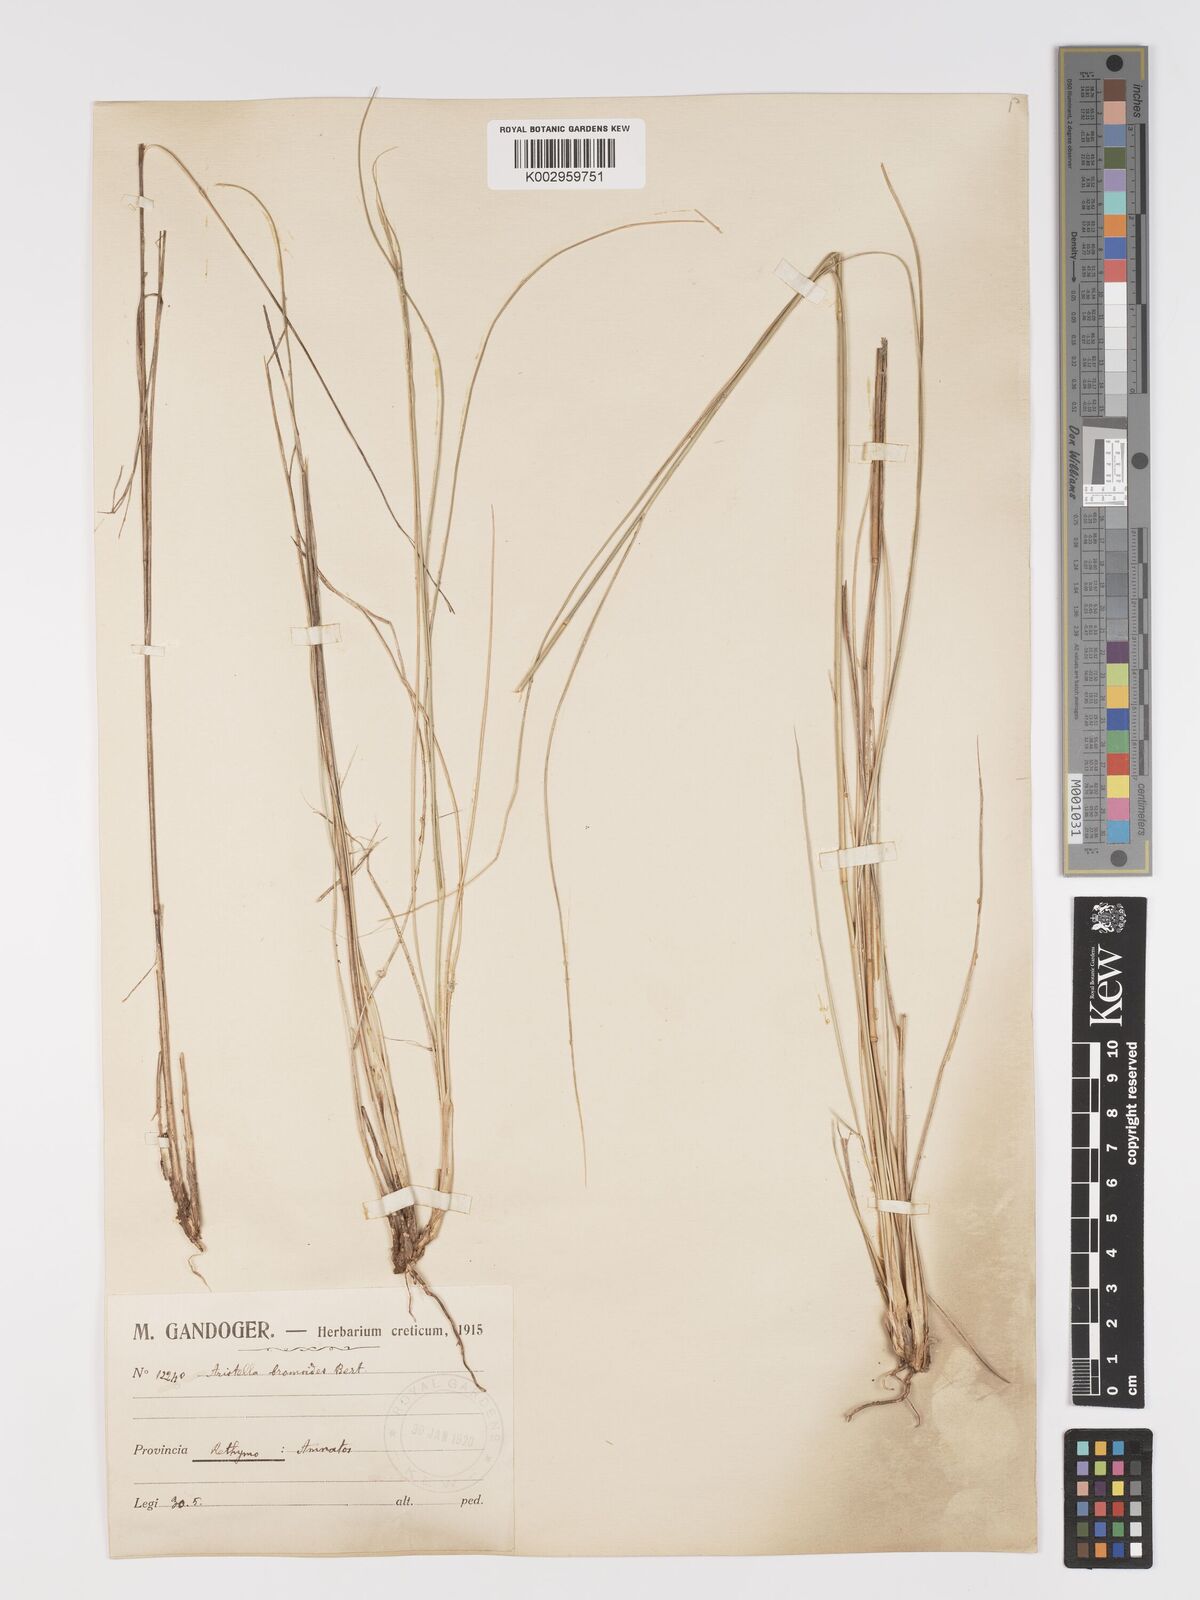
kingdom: Plantae
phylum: Tracheophyta
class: Liliopsida
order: Poales
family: Poaceae
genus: Achnatherum
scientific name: Achnatherum bromoides
